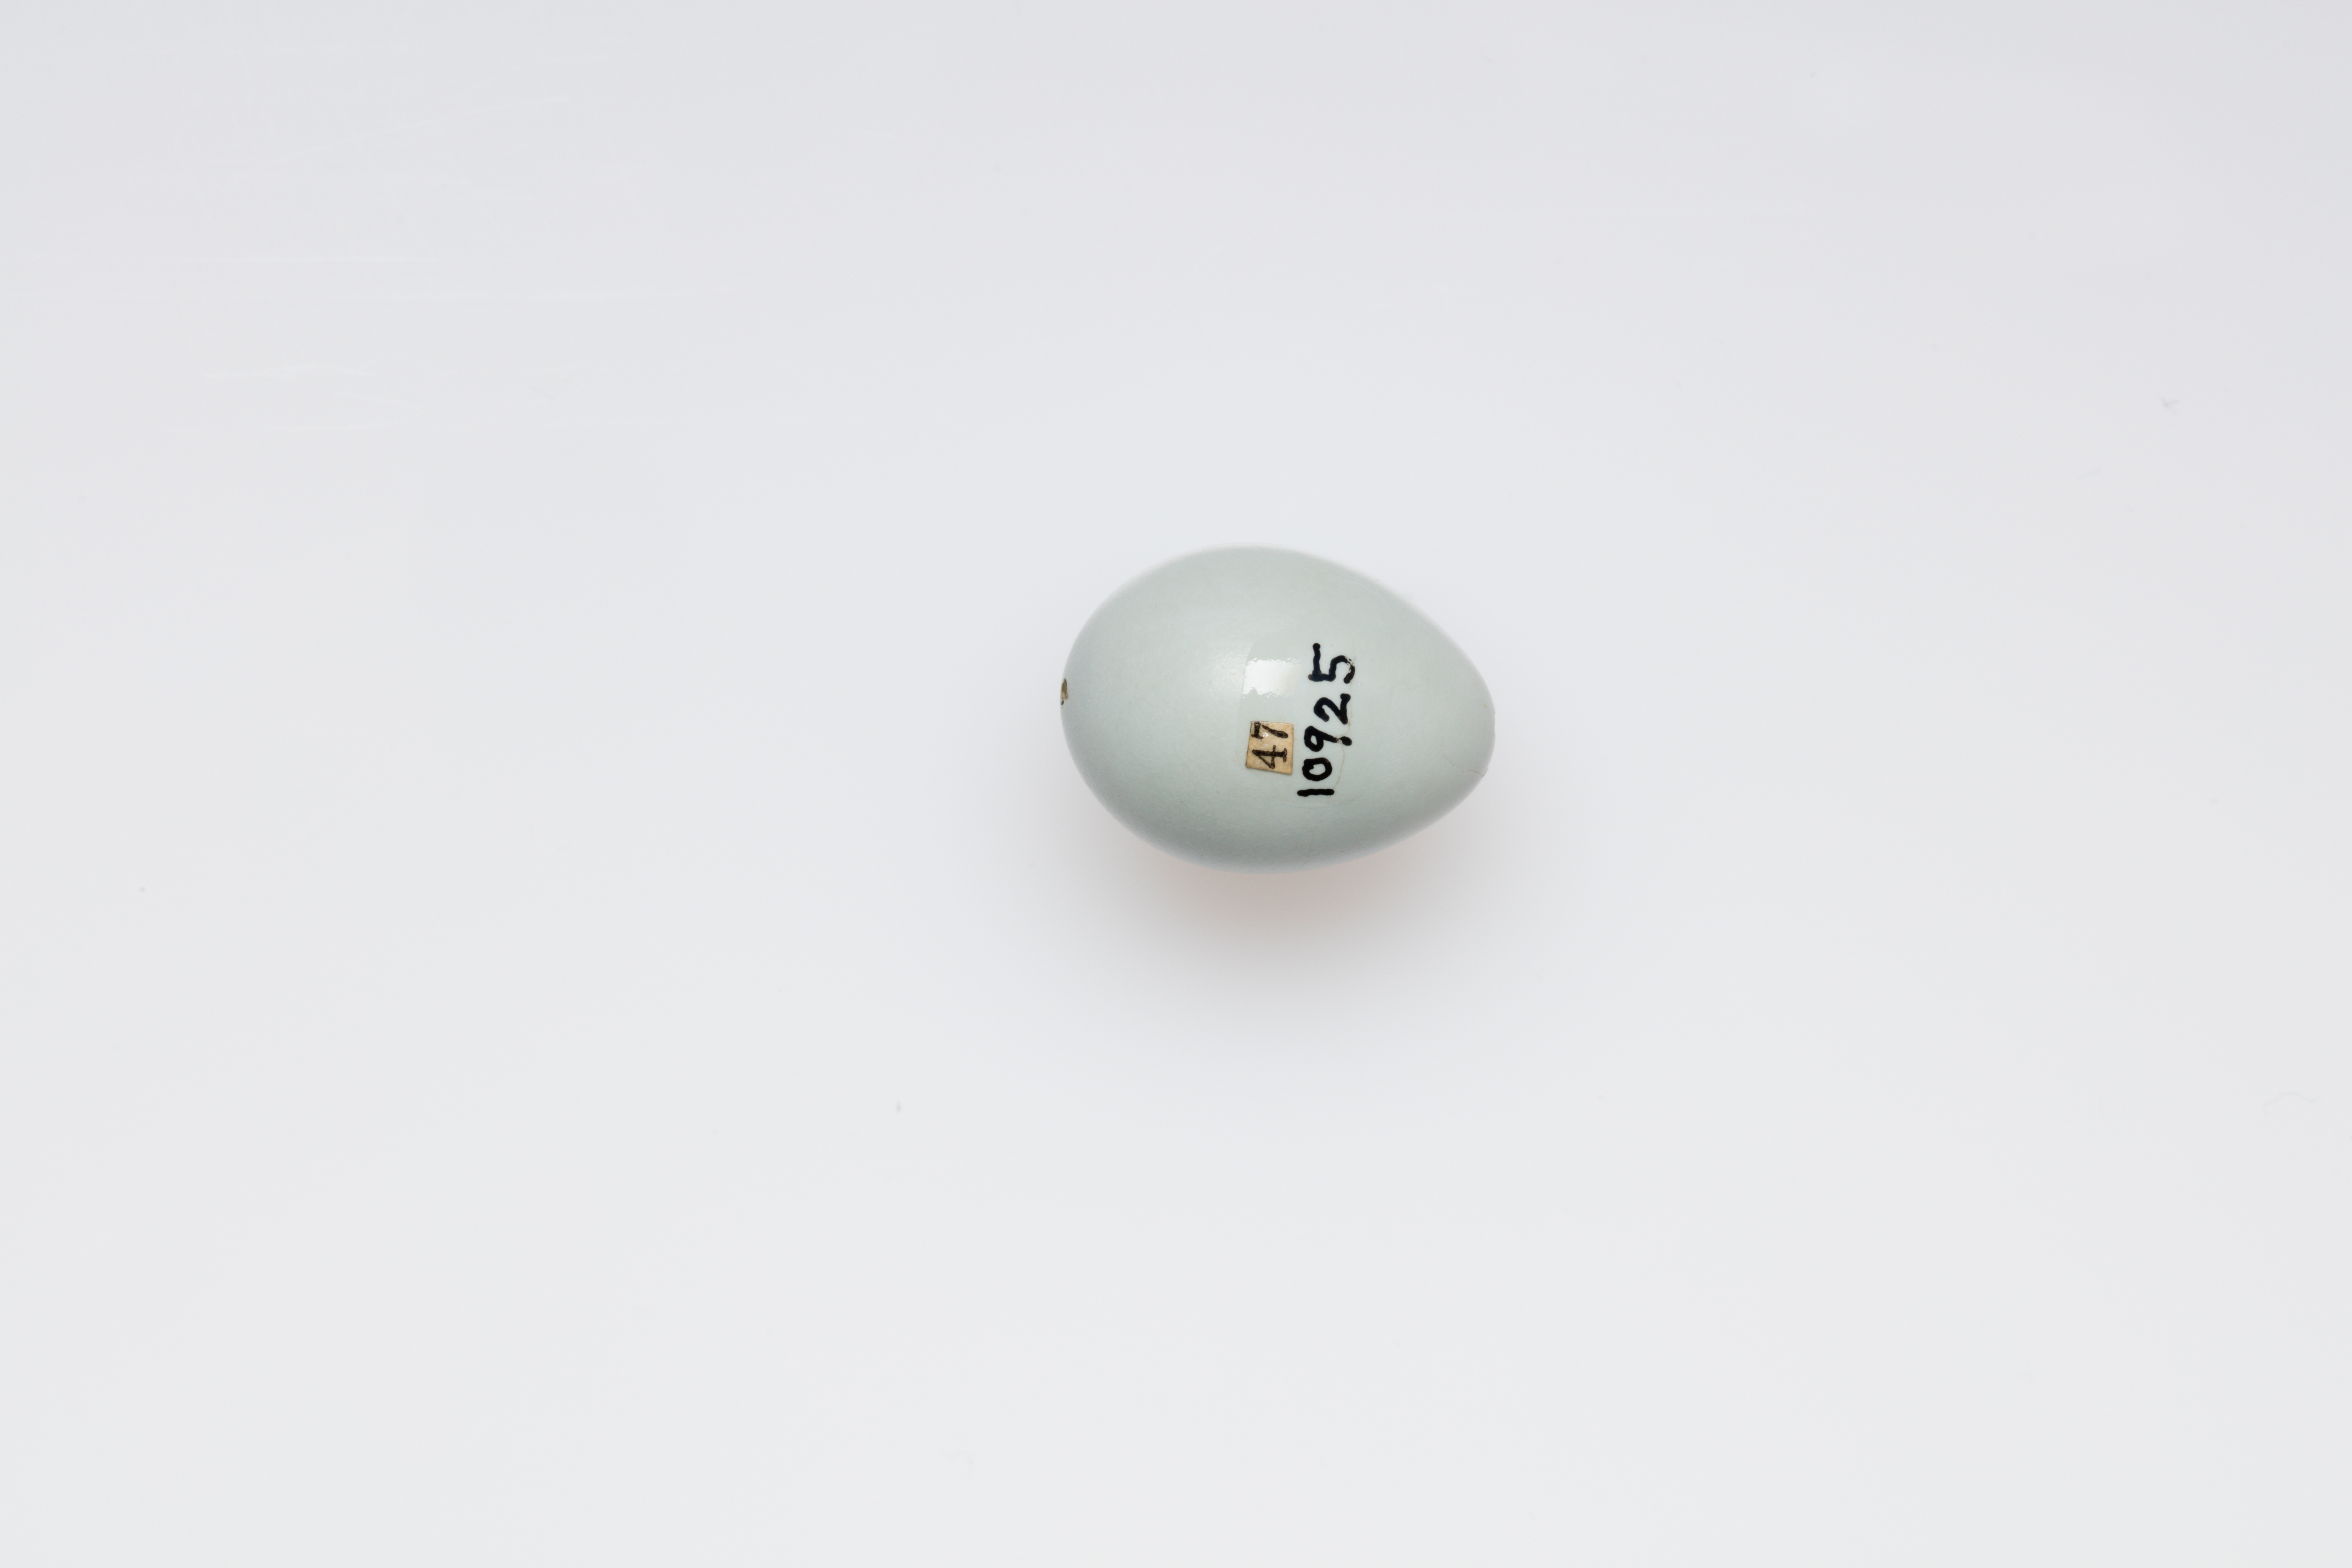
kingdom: Animalia
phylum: Chordata
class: Aves
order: Passeriformes
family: Muscicapidae
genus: Phoenicurus
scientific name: Phoenicurus phoenicurus
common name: Common redstart
